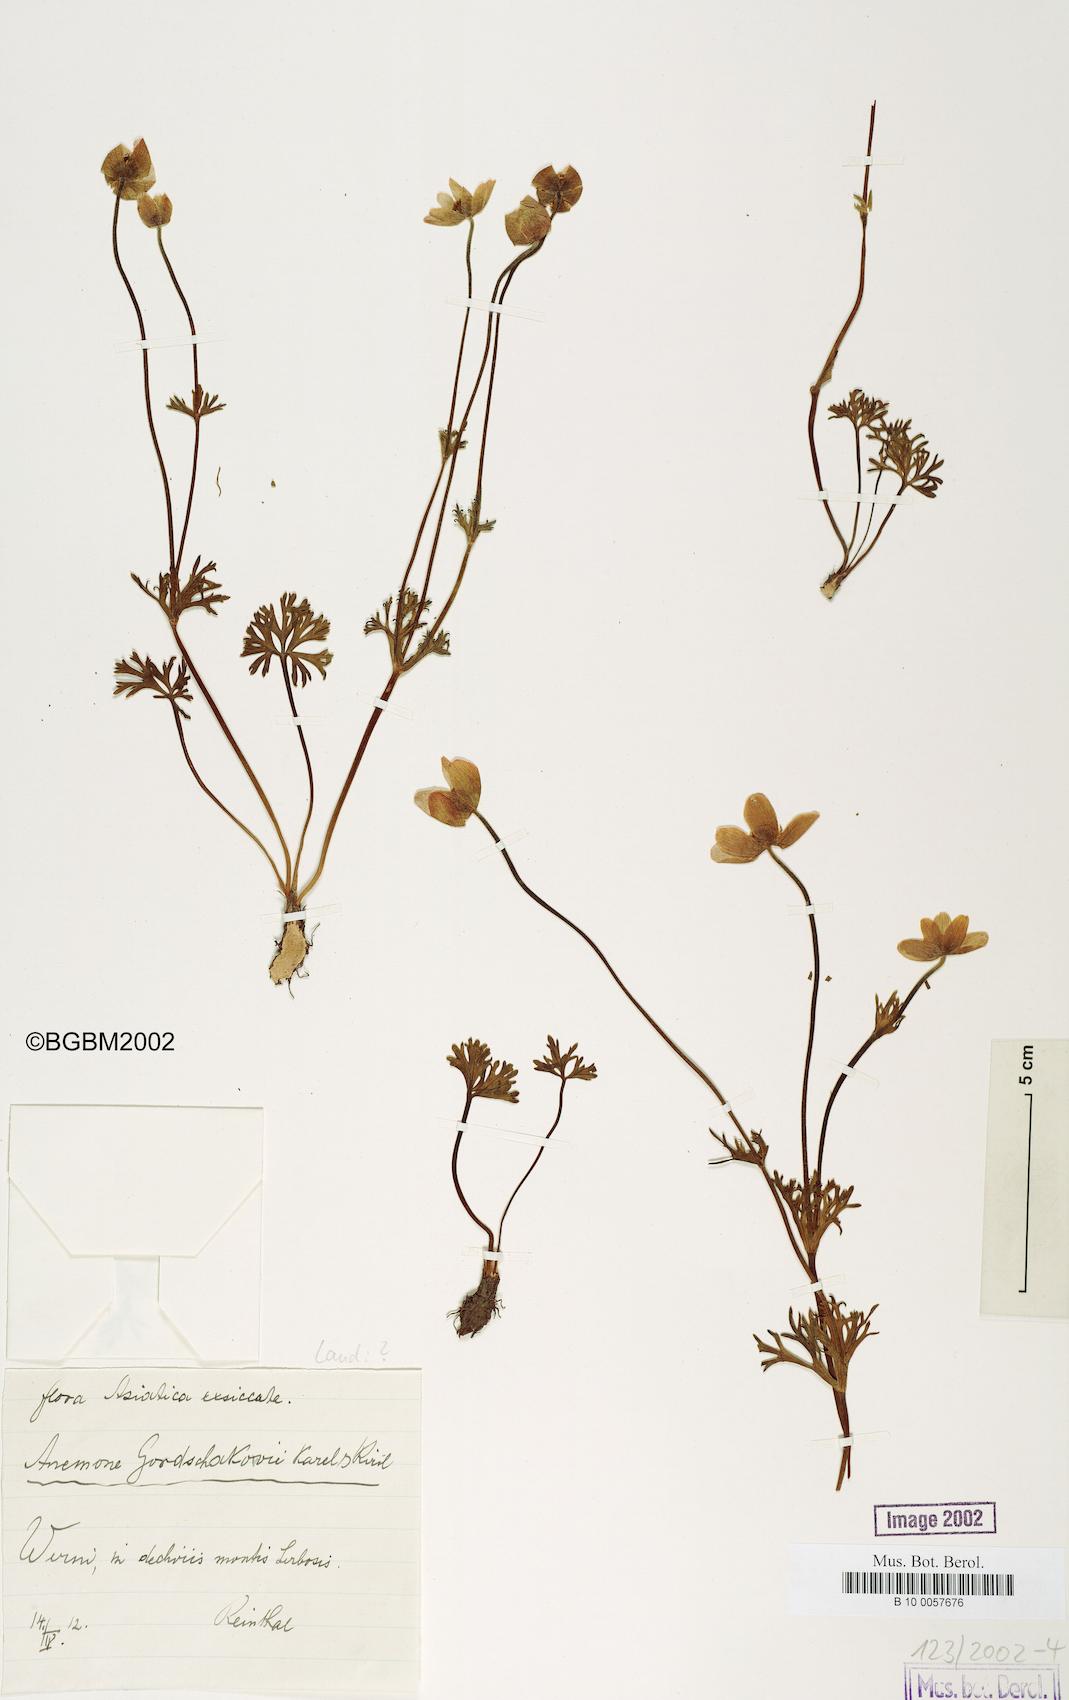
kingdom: Plantae
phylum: Tracheophyta
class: Magnoliopsida
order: Ranunculales
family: Ranunculaceae
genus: Anemone
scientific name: Anemone biflora
